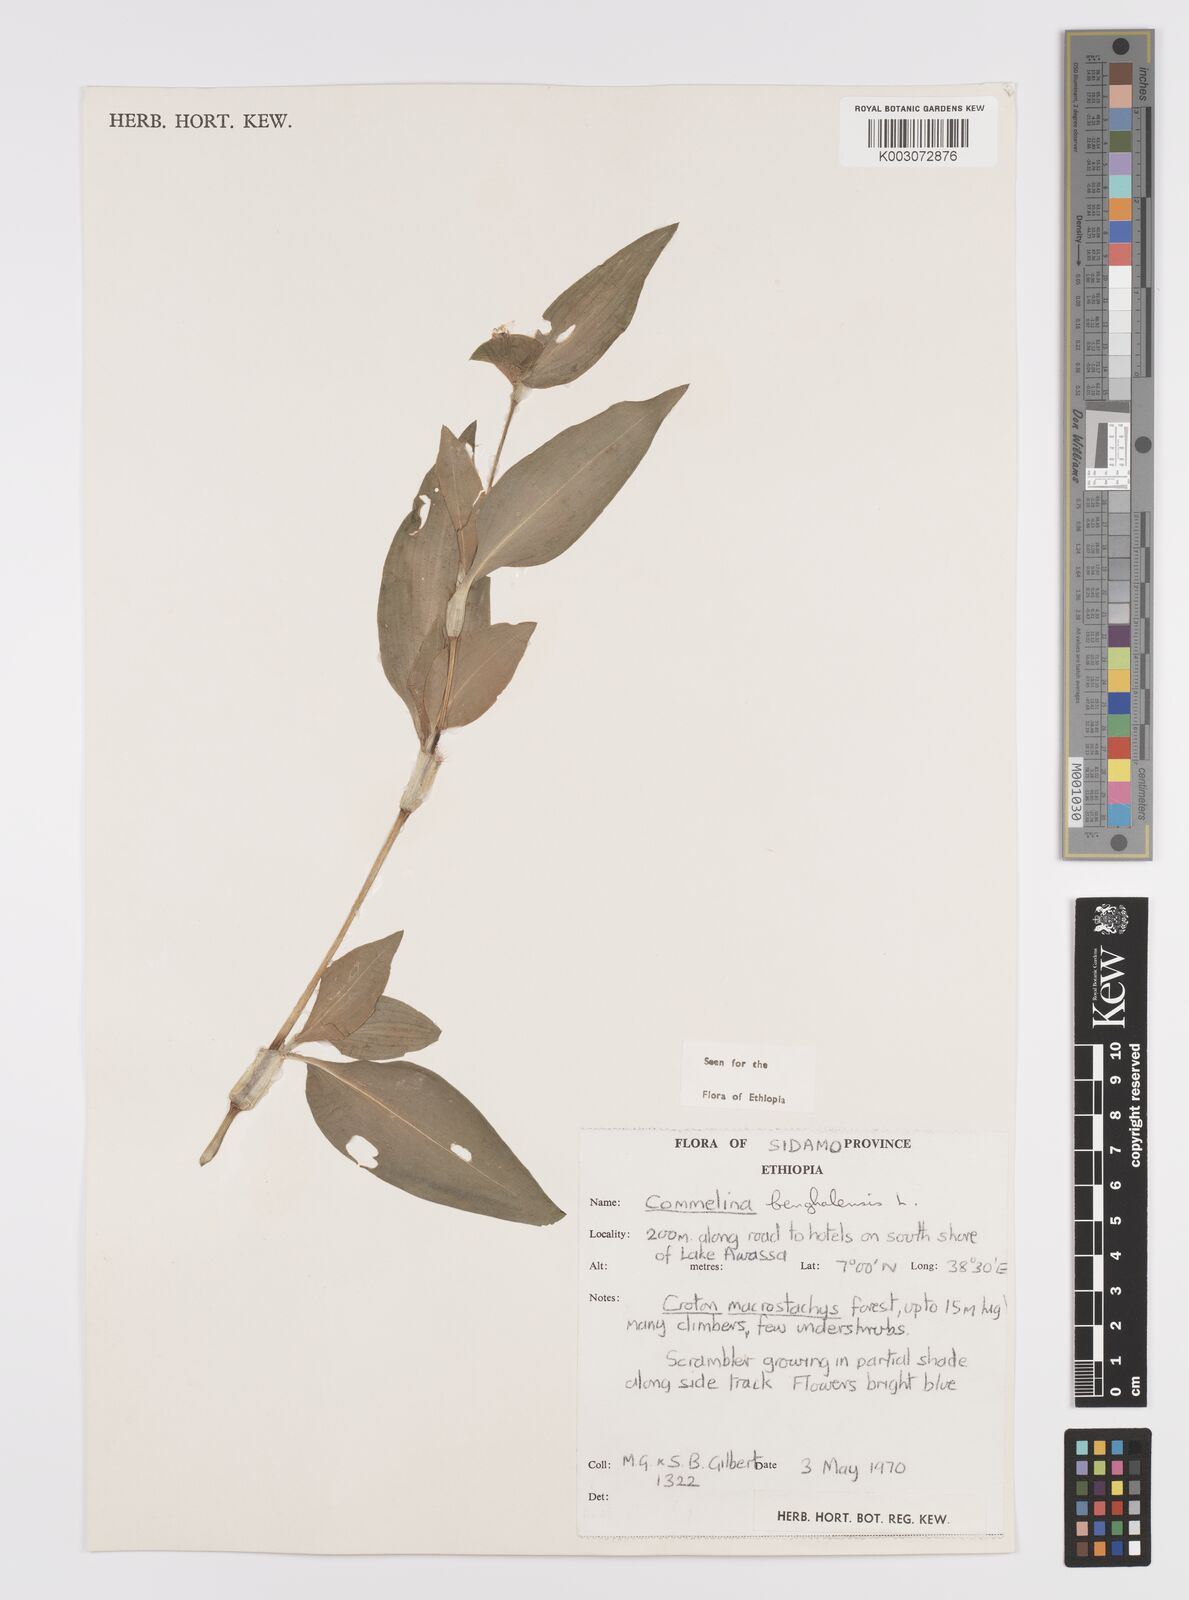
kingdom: Plantae
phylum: Tracheophyta
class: Liliopsida
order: Commelinales
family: Commelinaceae
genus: Commelina
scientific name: Commelina benghalensis
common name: Jio
